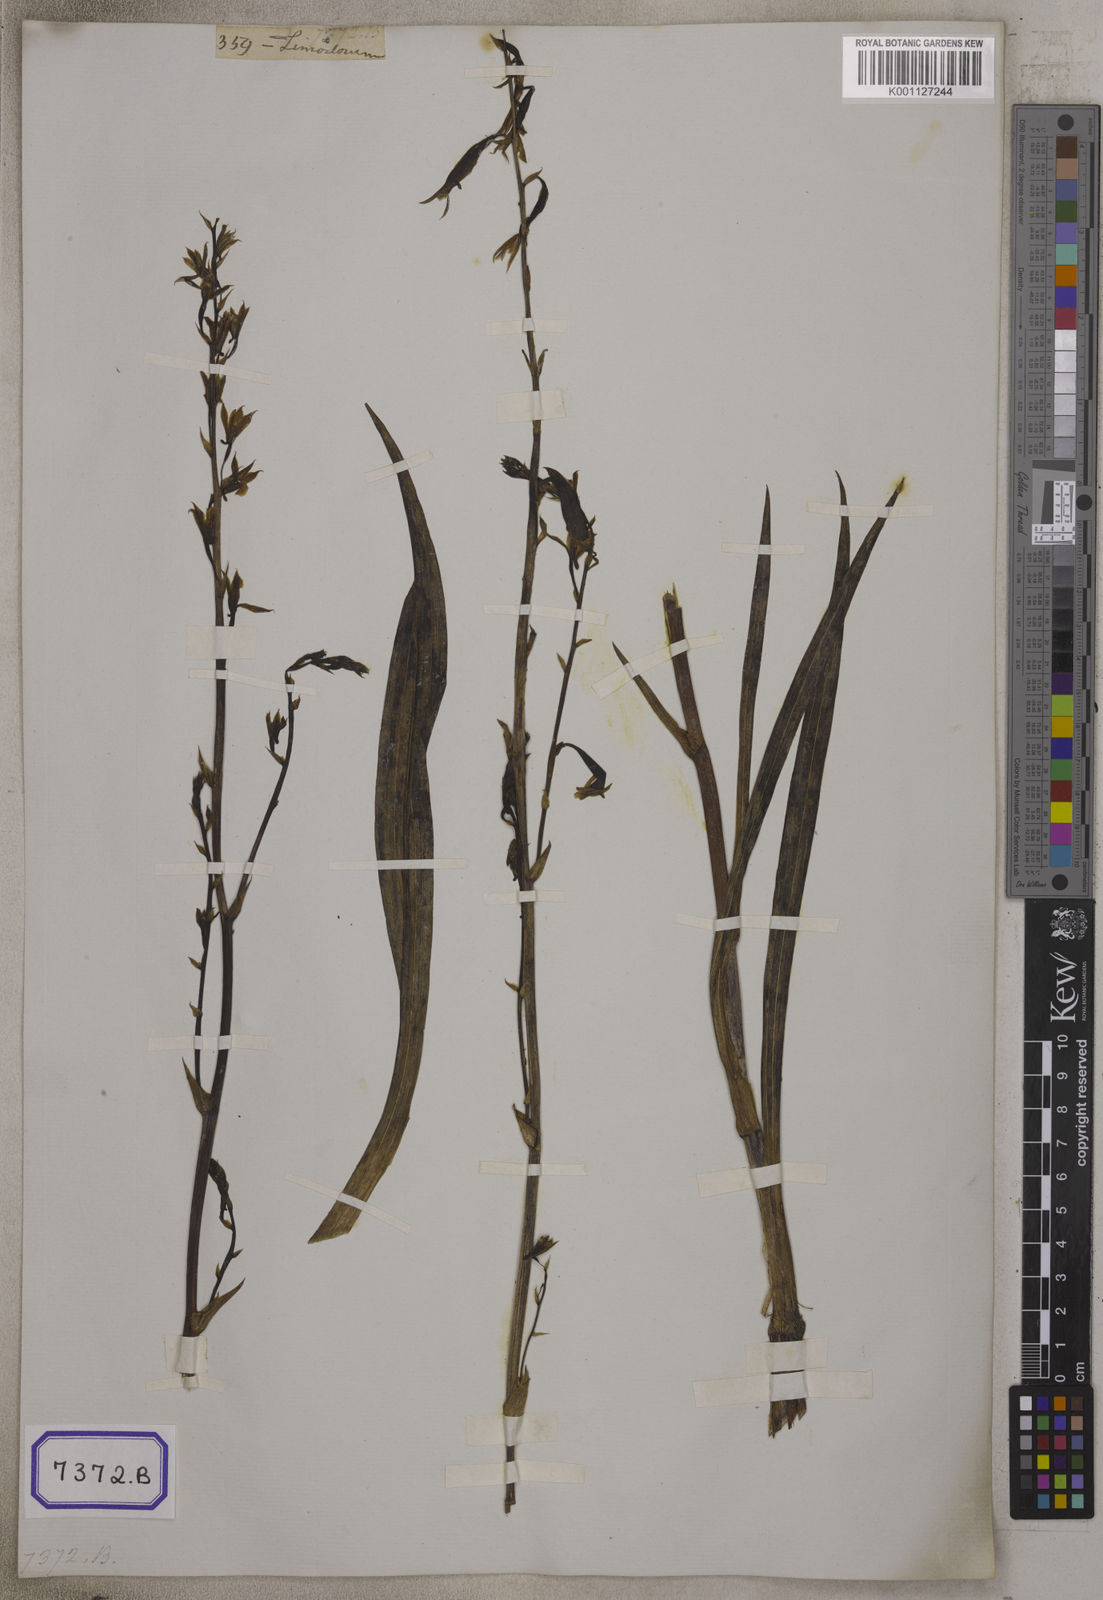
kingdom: Plantae
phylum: Tracheophyta
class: Liliopsida
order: Asparagales
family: Orchidaceae
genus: Eulophia
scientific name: Eulophia graminea
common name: Orchid
